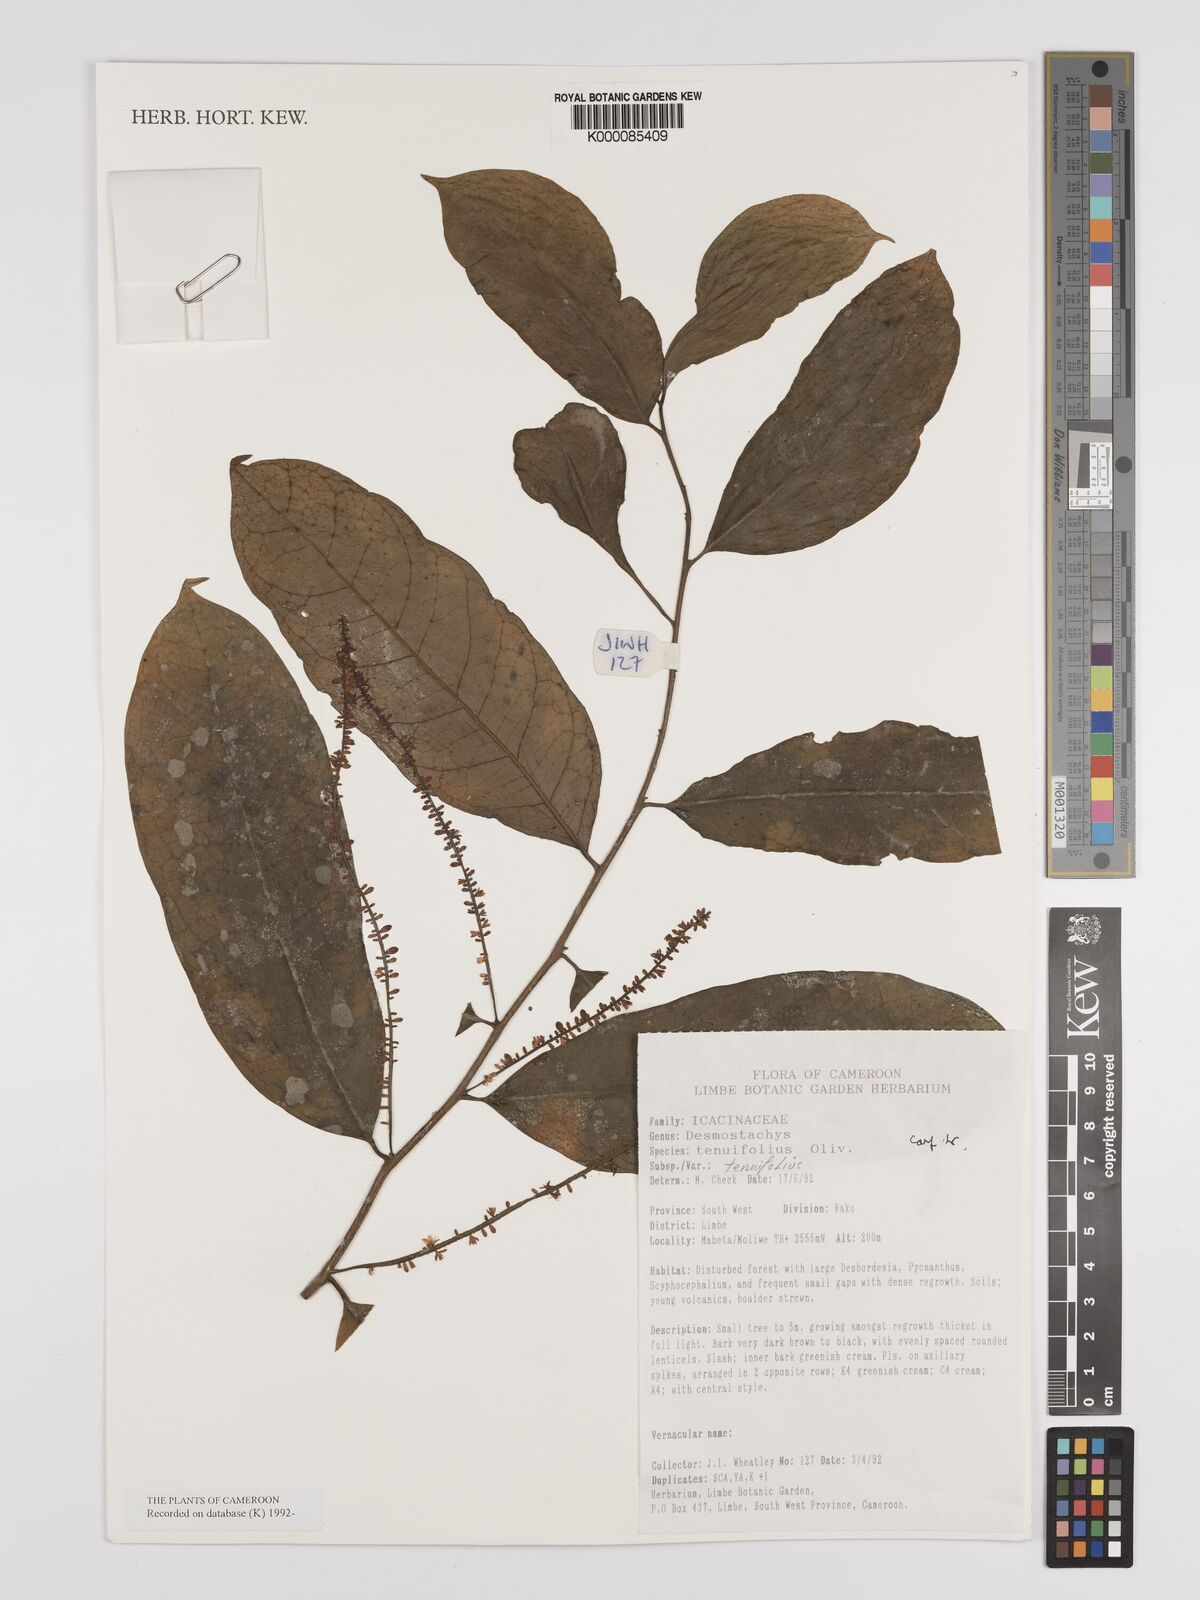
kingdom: Plantae
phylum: Tracheophyta
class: Magnoliopsida
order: Icacinales
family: Icacinaceae
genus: Vadensea
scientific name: Vadensea tenuifolia
